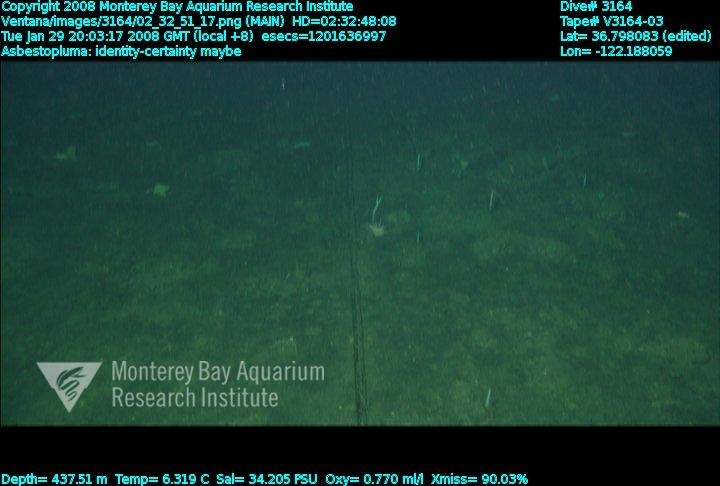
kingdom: Animalia
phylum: Porifera
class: Demospongiae
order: Poecilosclerida
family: Cladorhizidae
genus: Asbestopluma
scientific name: Asbestopluma
